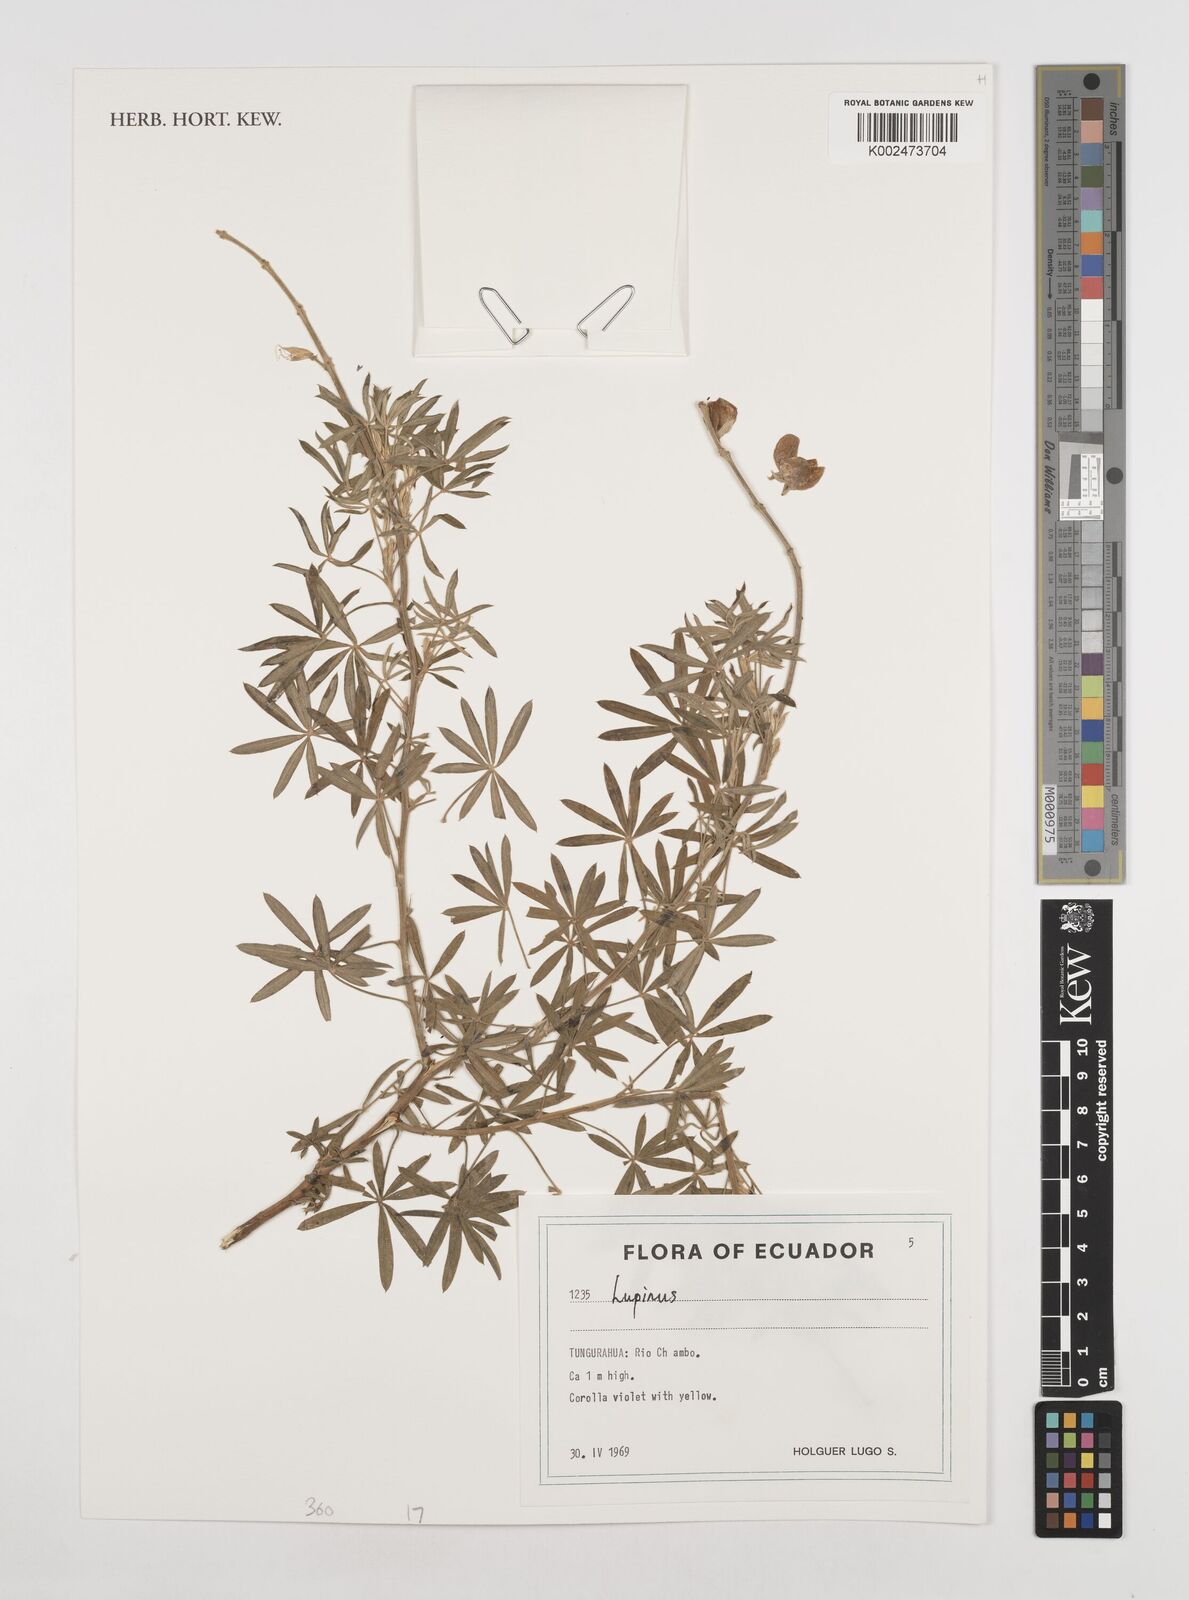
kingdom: Plantae
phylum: Tracheophyta
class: Magnoliopsida
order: Fabales
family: Fabaceae
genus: Lupinus
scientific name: Lupinus
